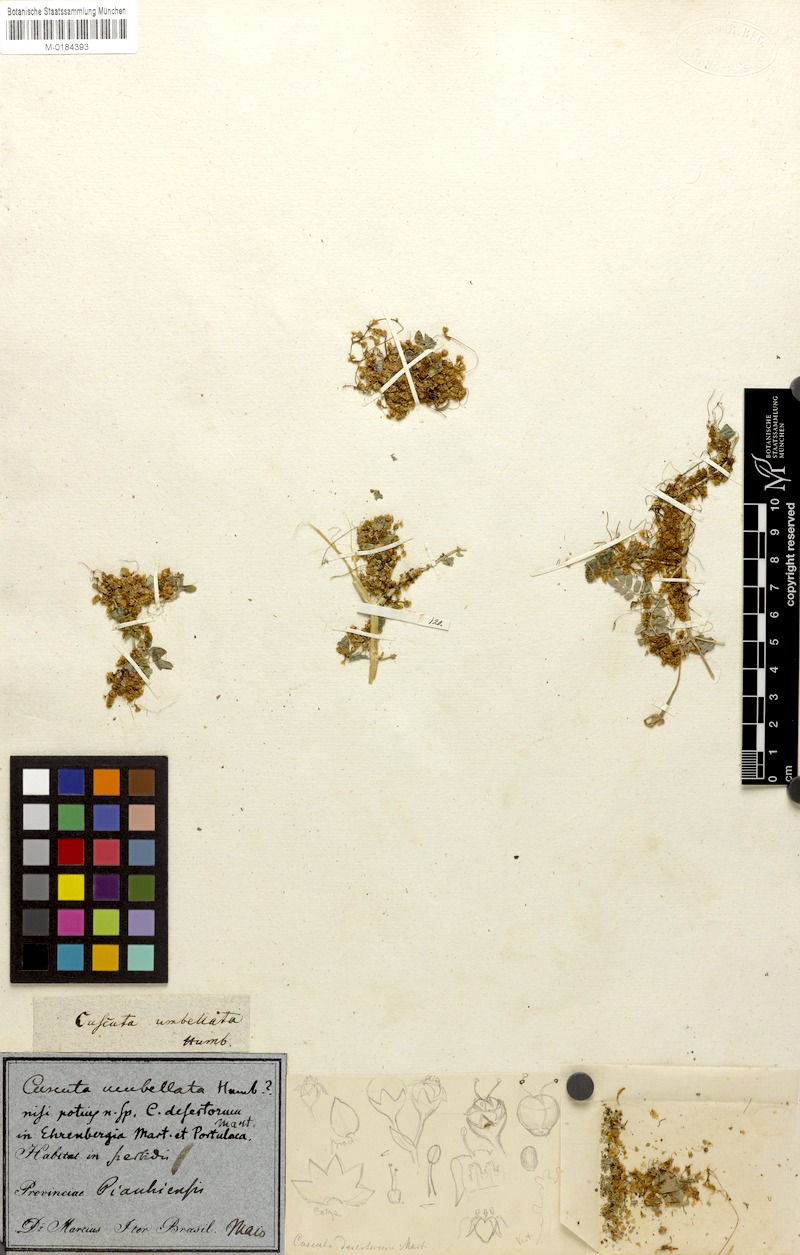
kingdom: Plantae
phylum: Tracheophyta
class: Magnoliopsida
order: Solanales
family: Convolvulaceae
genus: Cuscuta
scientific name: Cuscuta umbellata
